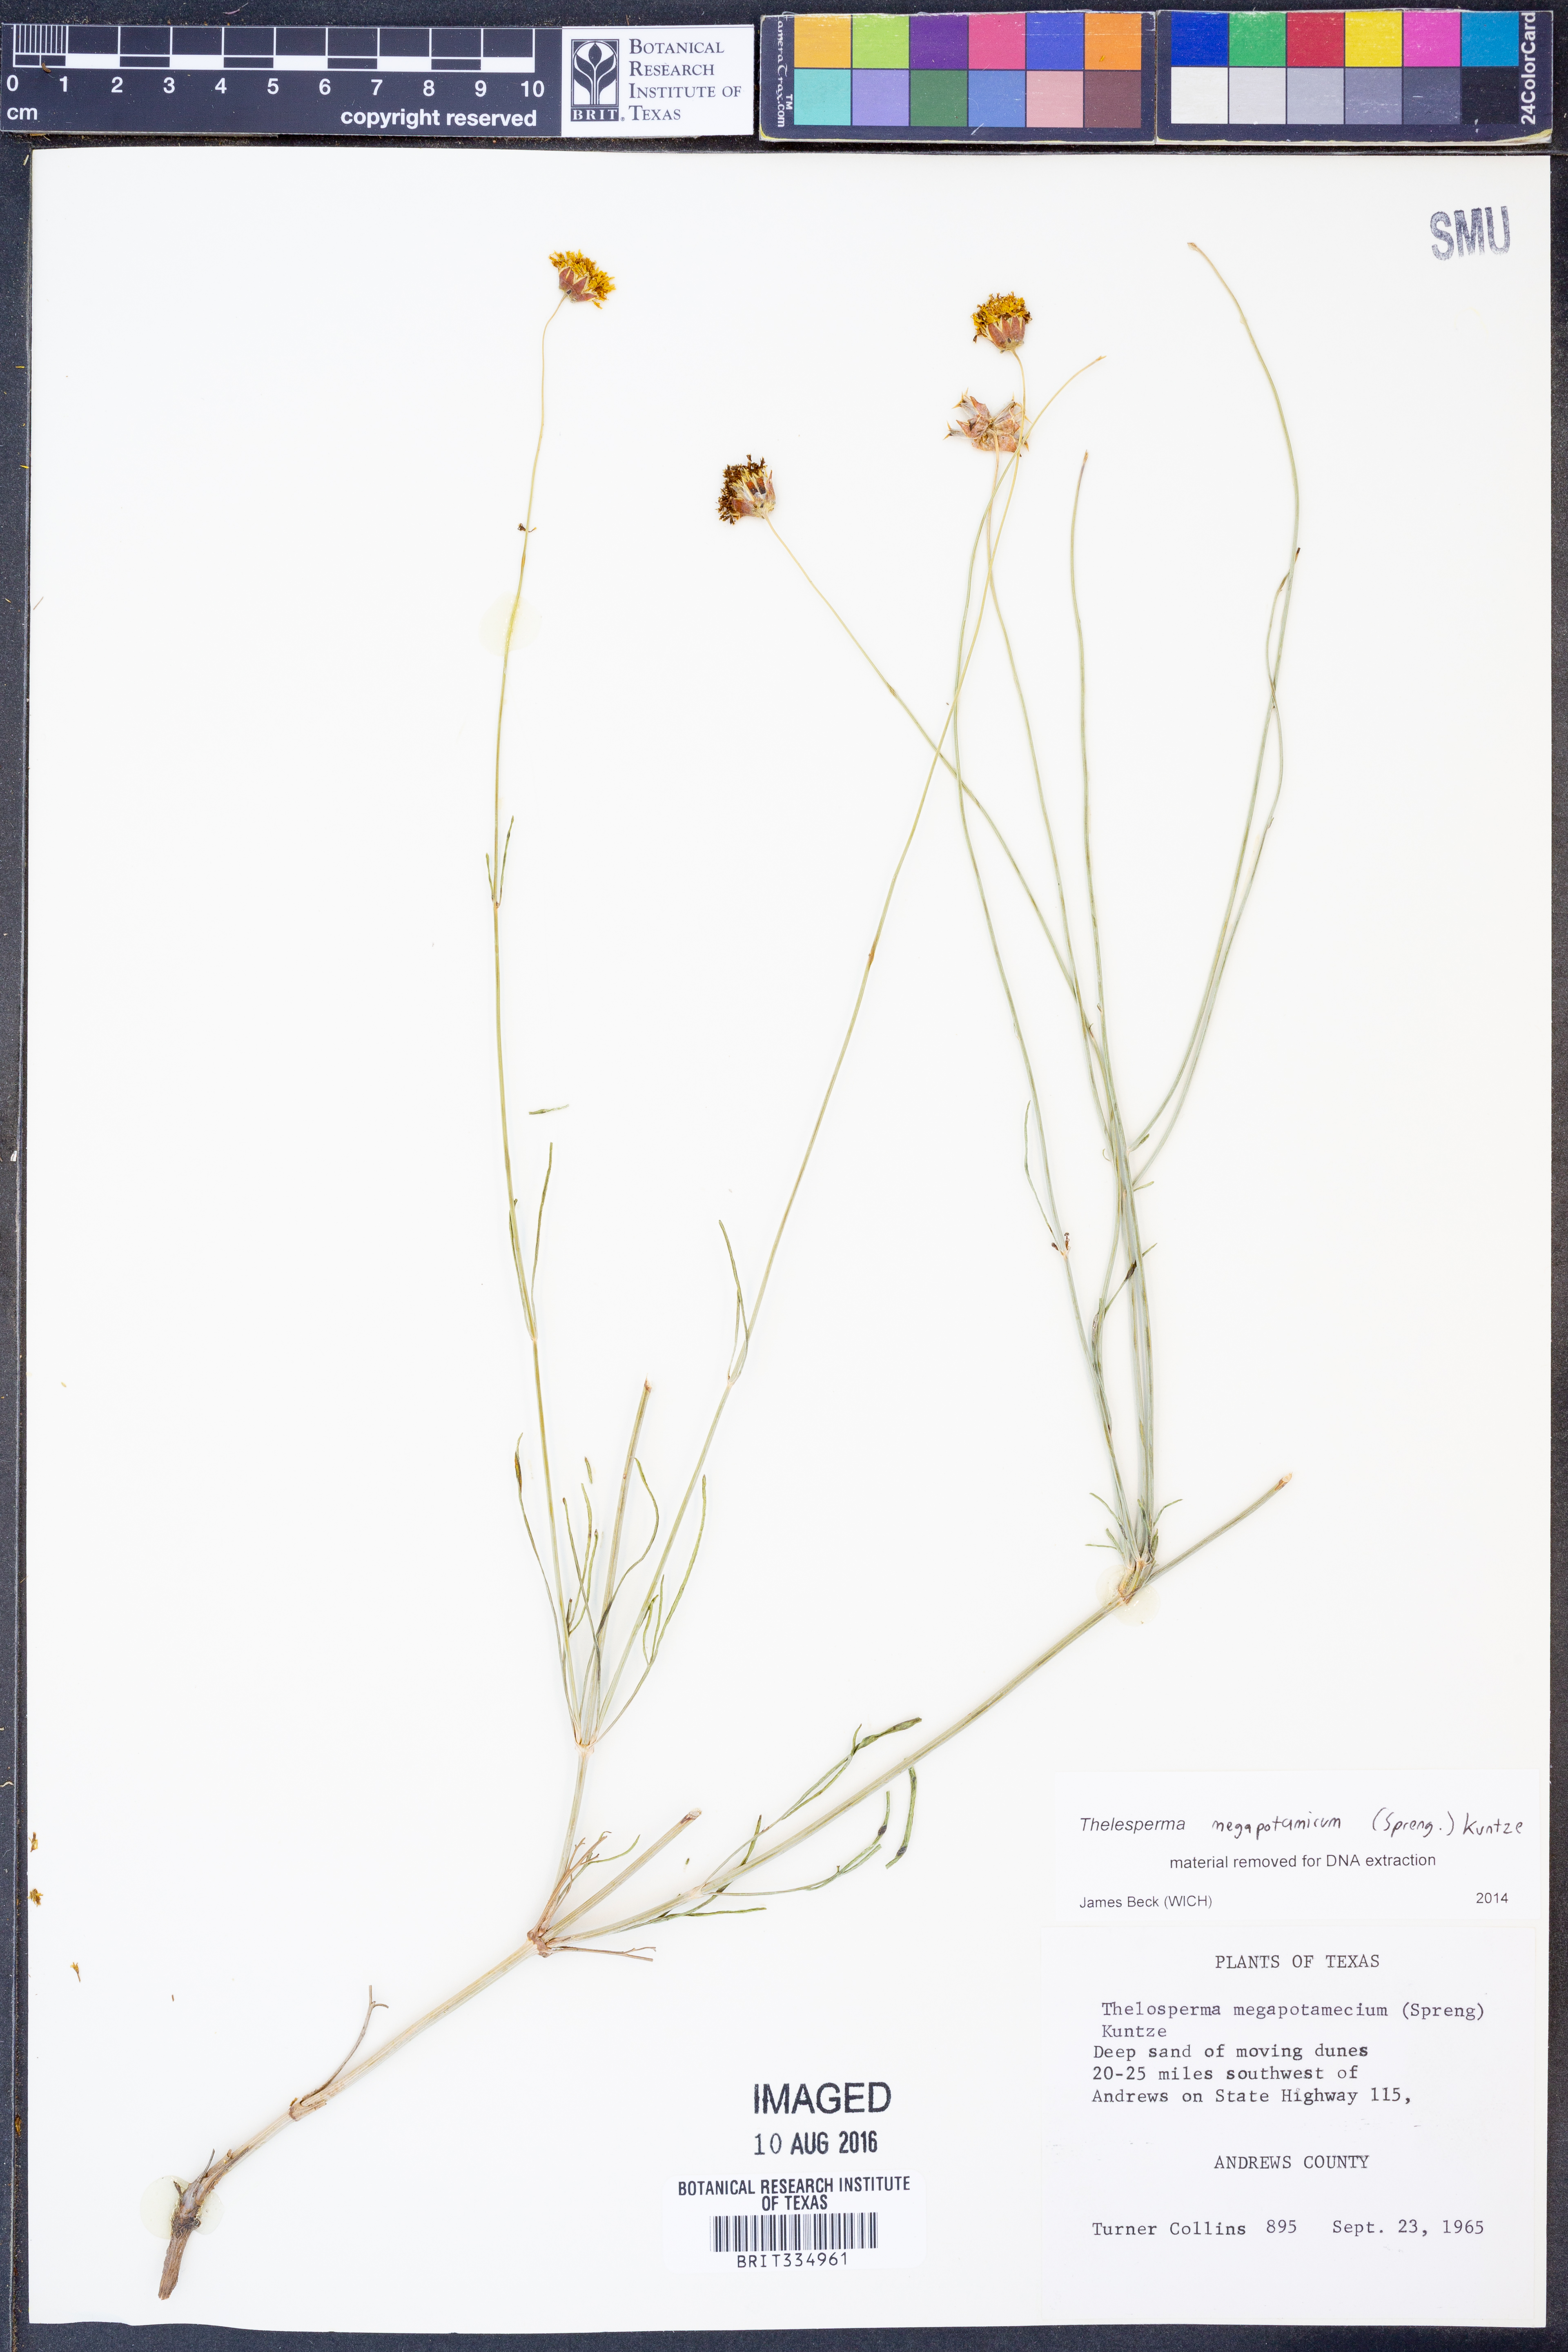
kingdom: Plantae
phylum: Tracheophyta
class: Magnoliopsida
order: Asterales
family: Asteraceae
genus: Thelesperma
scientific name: Thelesperma megapotamicum
